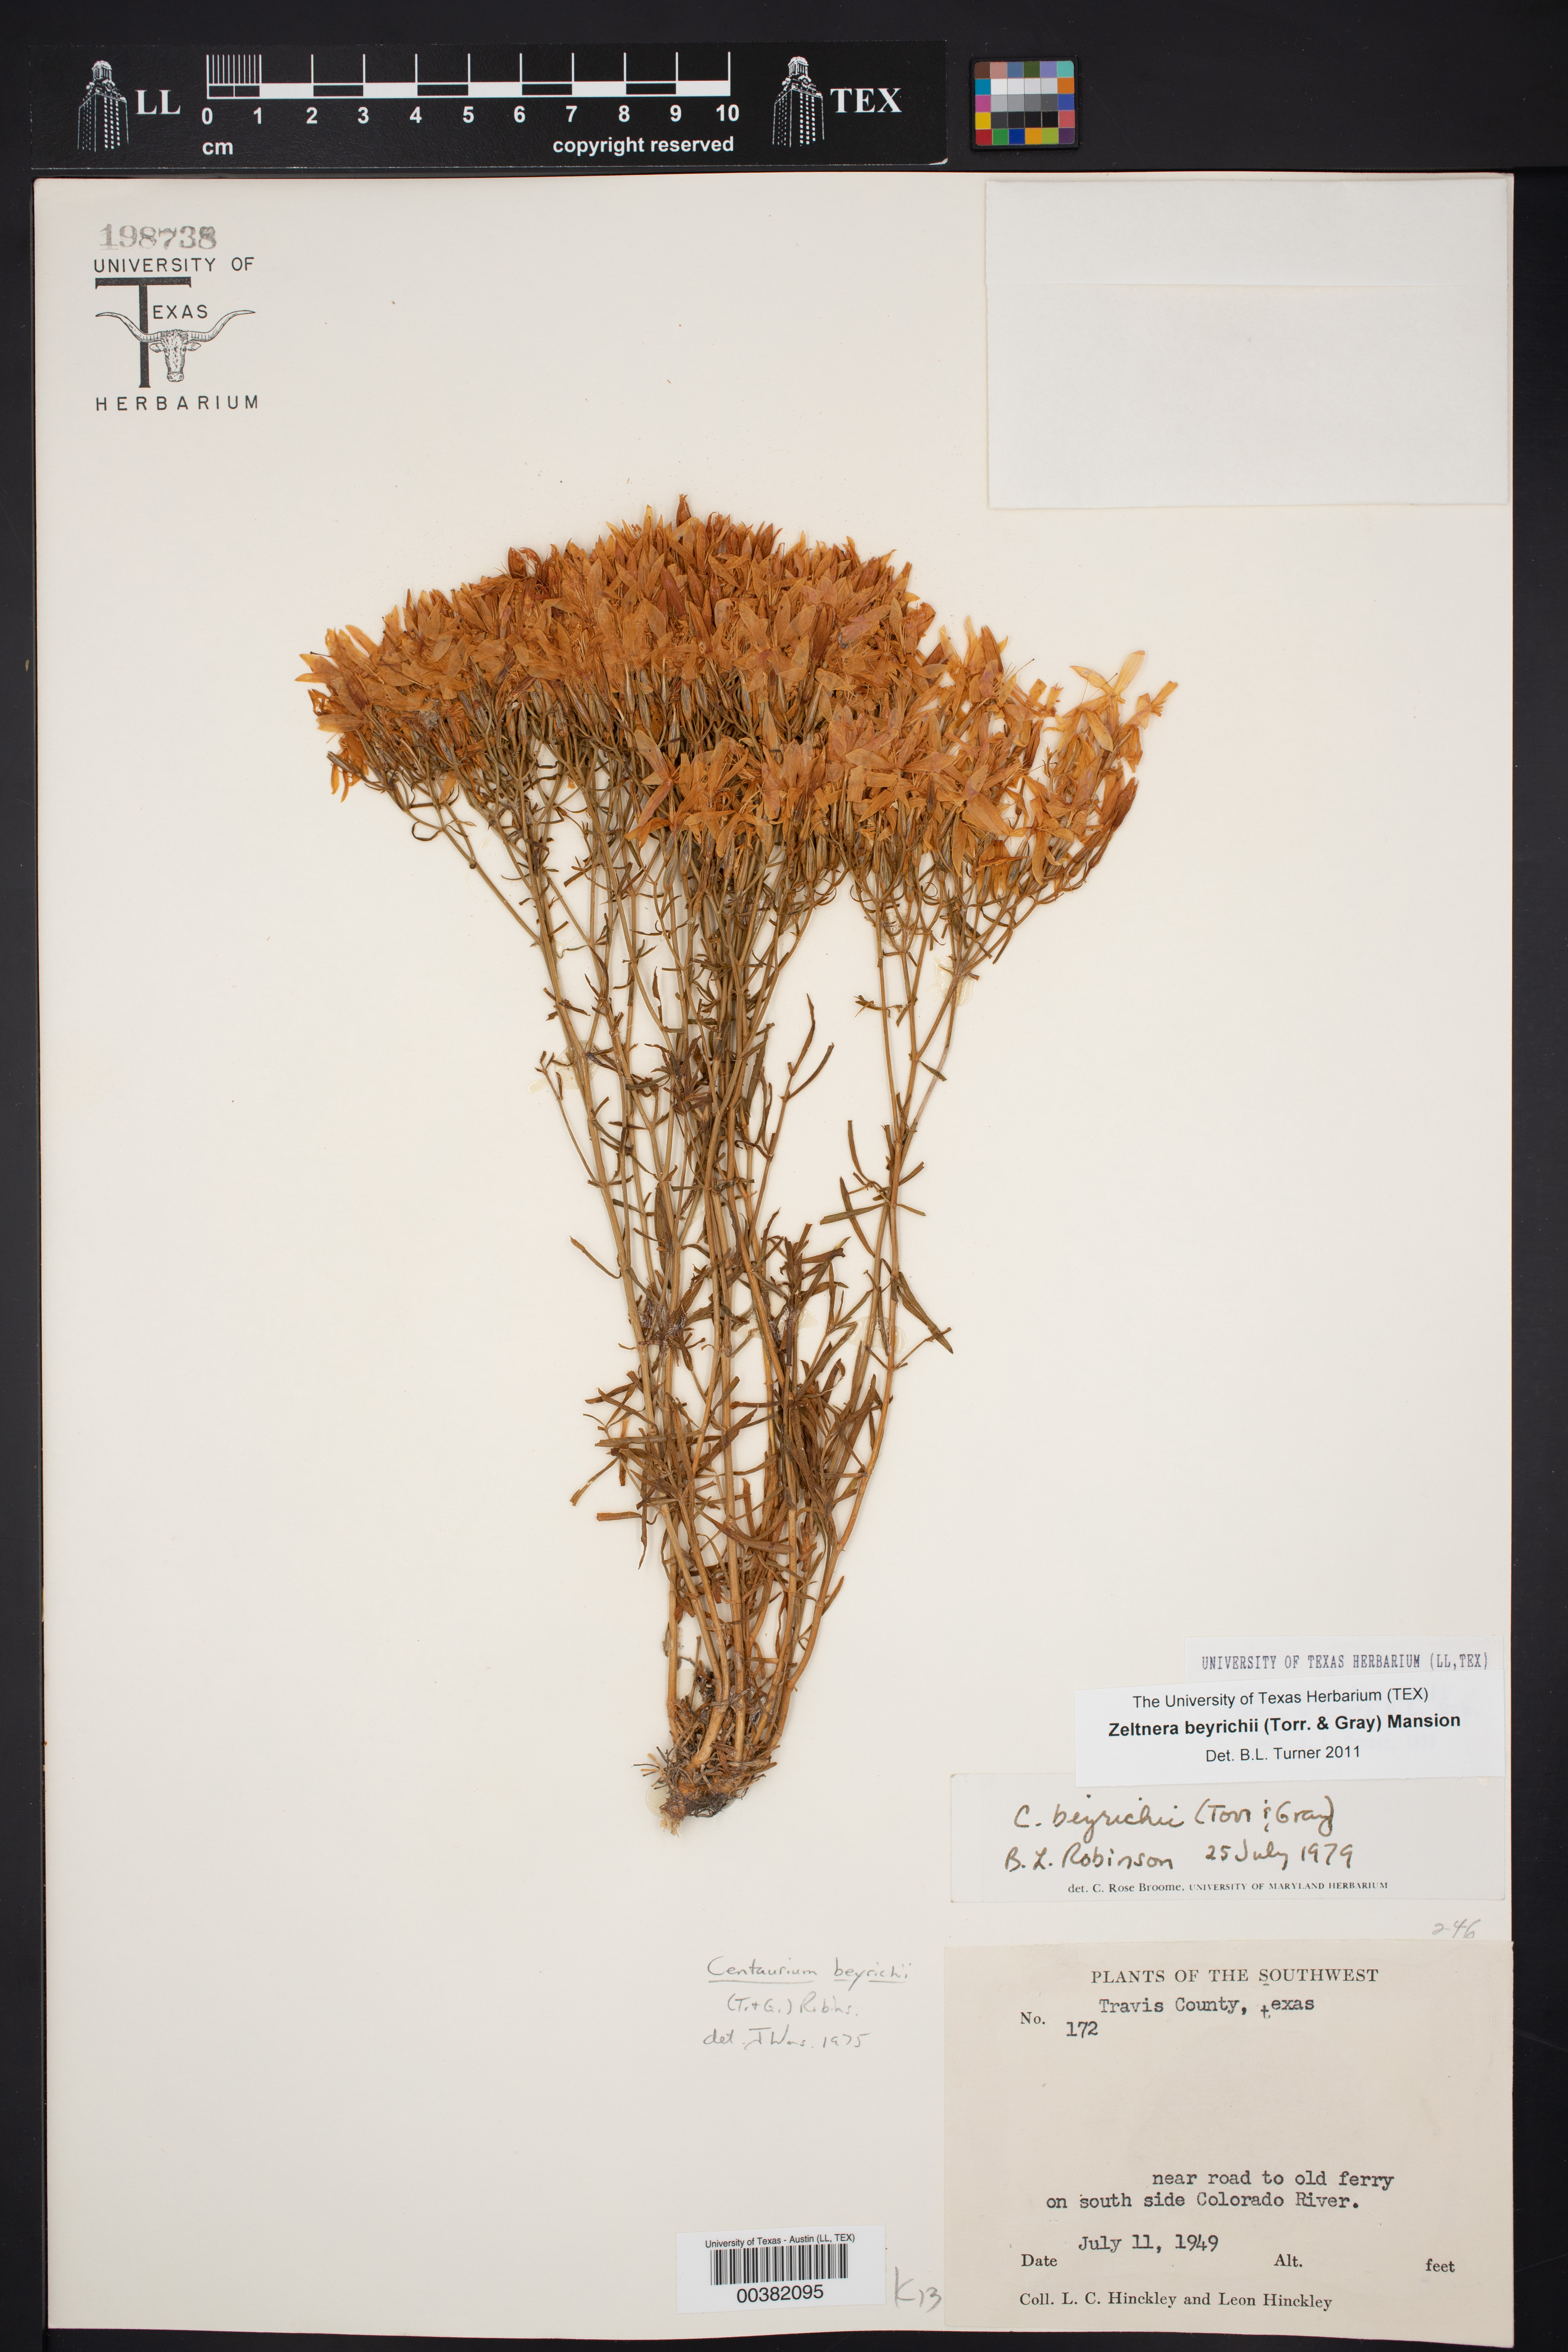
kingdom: Plantae
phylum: Tracheophyta
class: Magnoliopsida
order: Gentianales
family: Gentianaceae
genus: Zeltnera
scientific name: Zeltnera beyrichii
